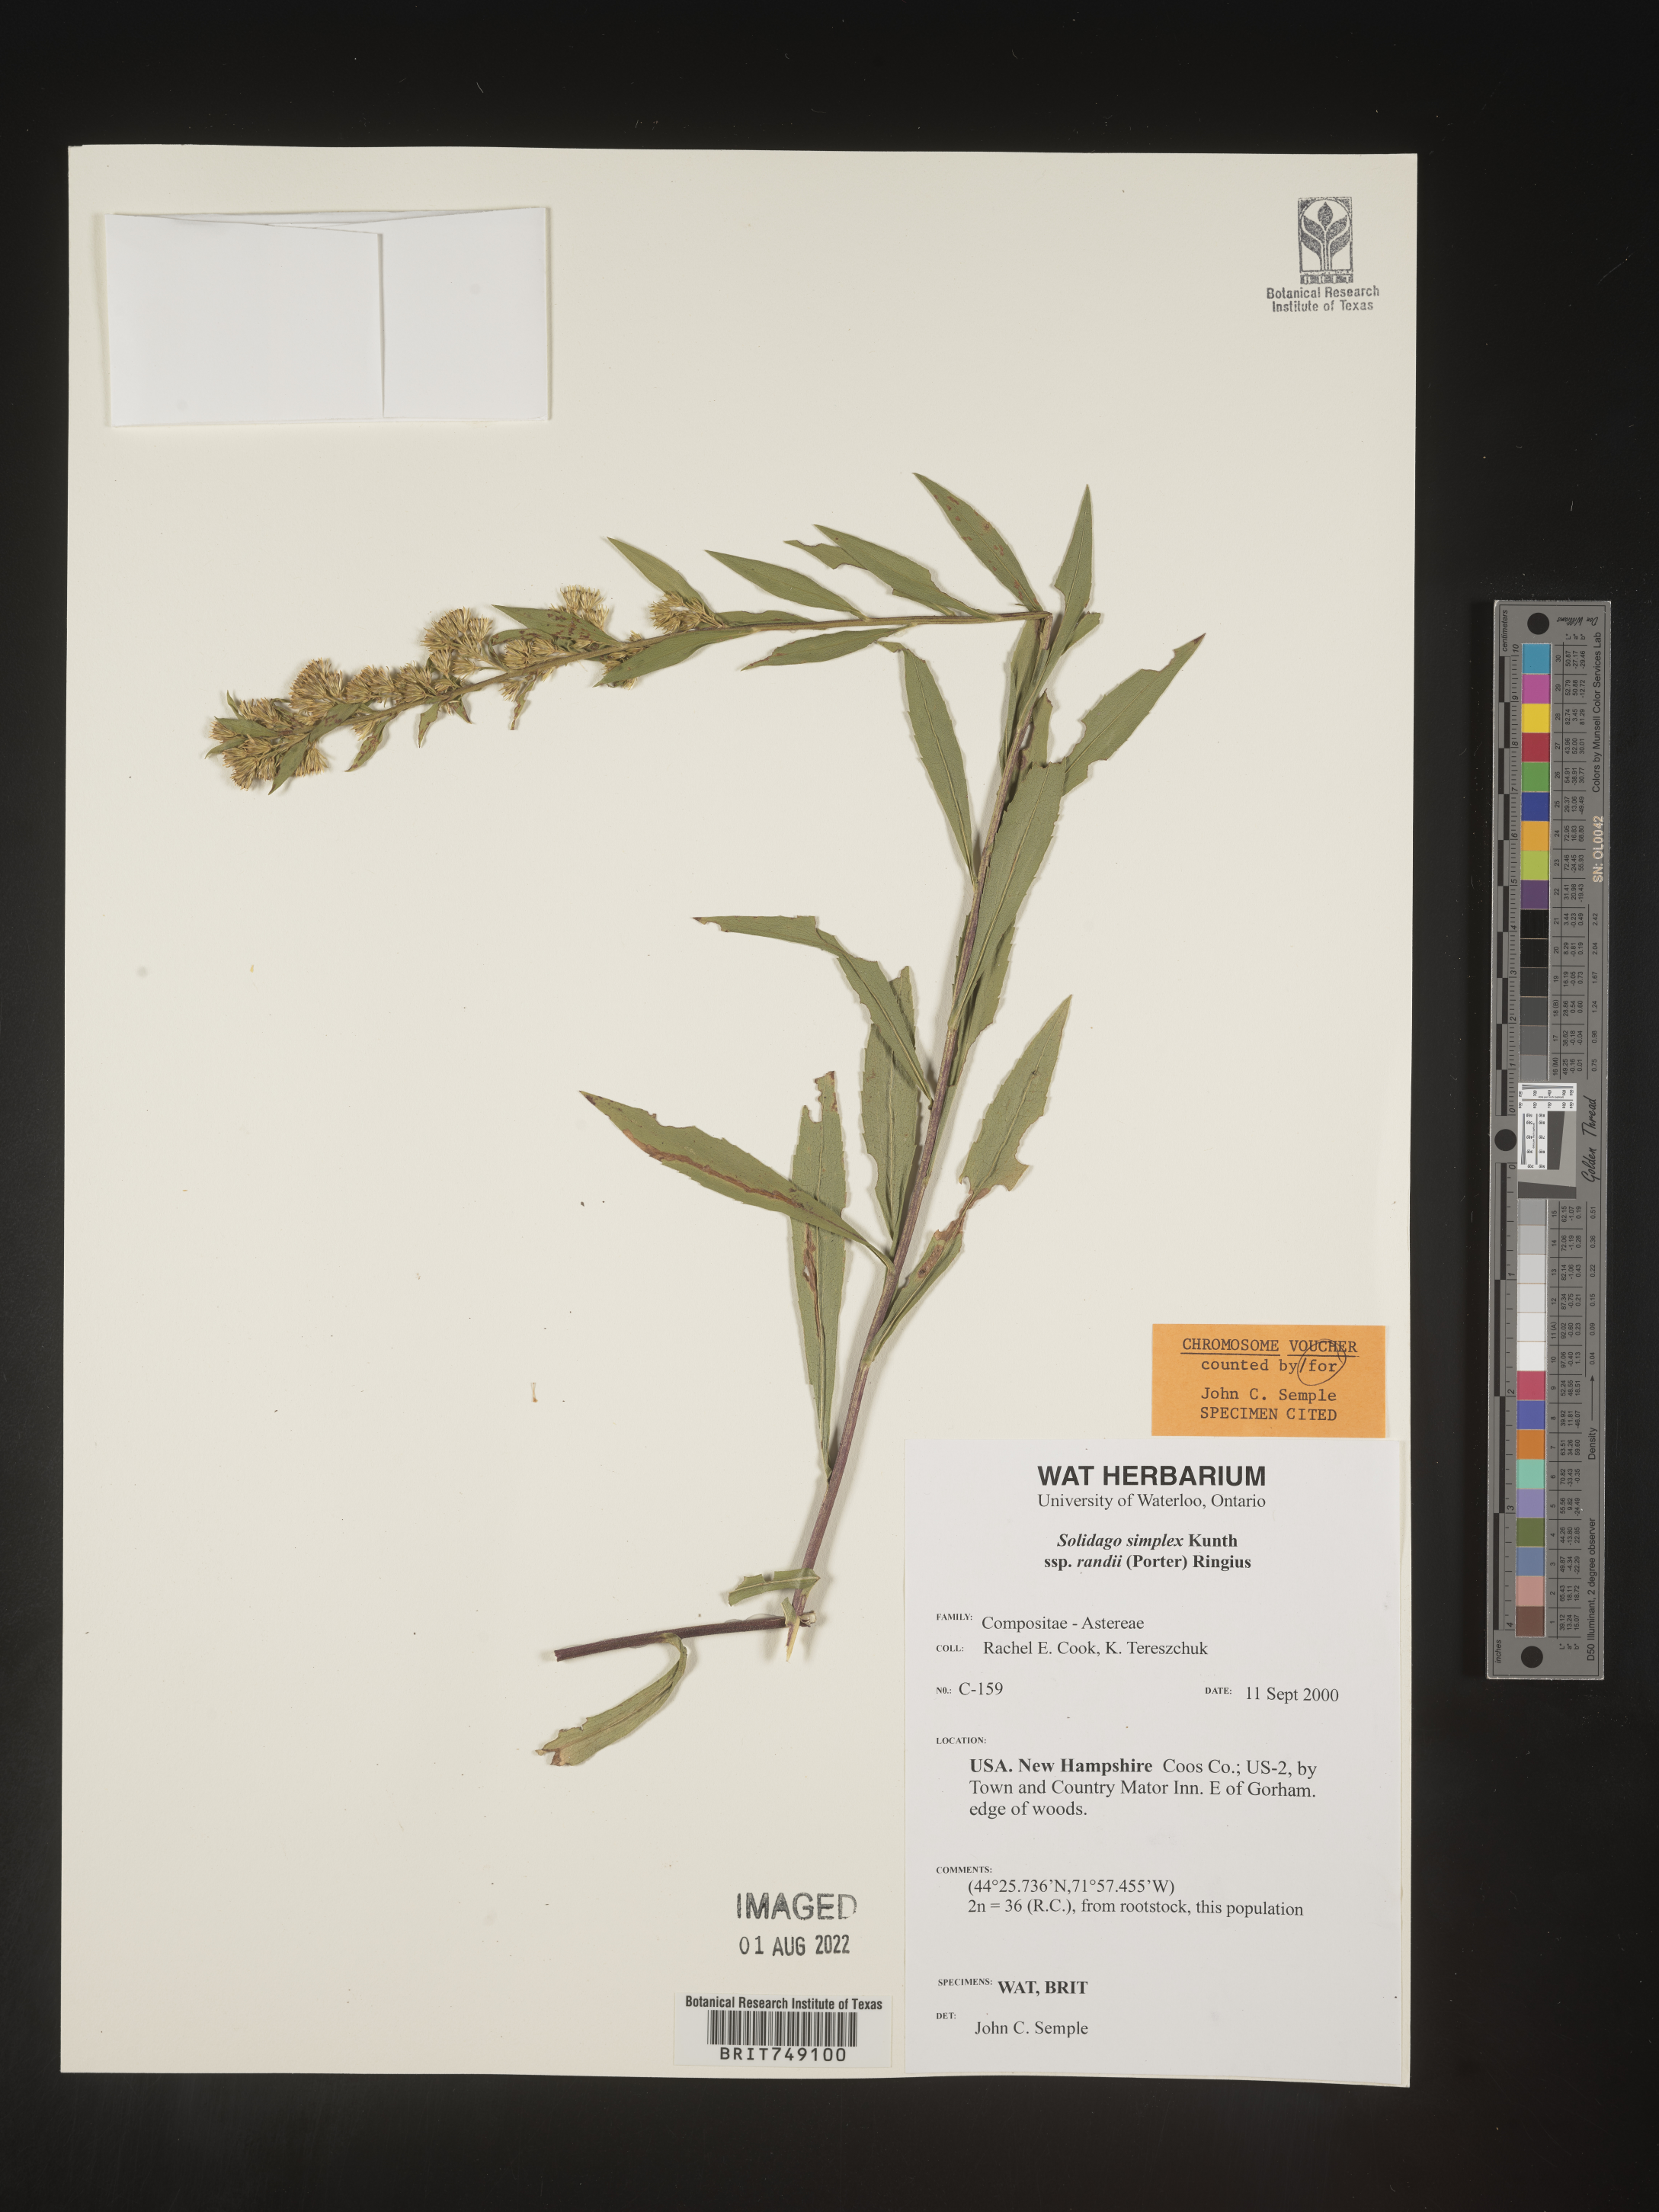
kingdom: Plantae
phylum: Tracheophyta
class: Magnoliopsida
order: Asterales
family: Asteraceae
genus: Solidago
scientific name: Solidago simplex
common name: Sticky goldenrod
